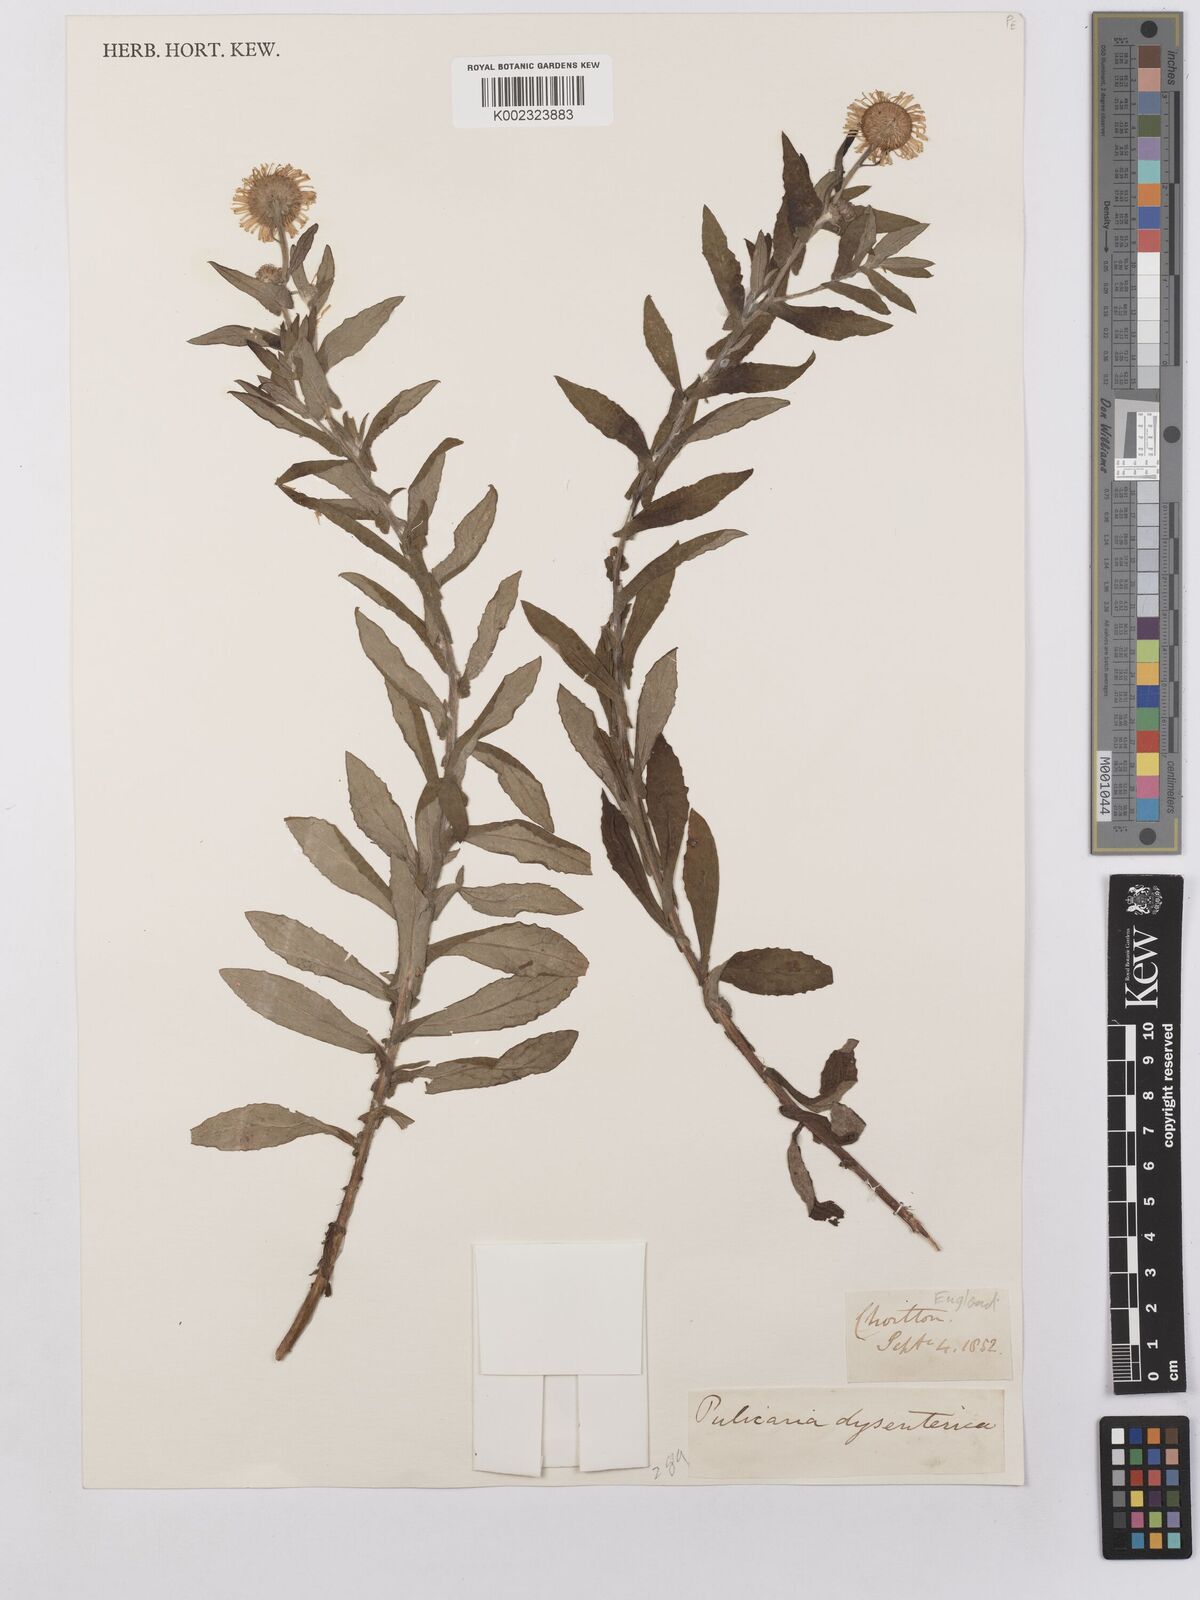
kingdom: Plantae
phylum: Tracheophyta
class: Magnoliopsida
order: Asterales
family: Asteraceae
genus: Pulicaria
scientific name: Pulicaria dysenterica
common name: Common fleabane
